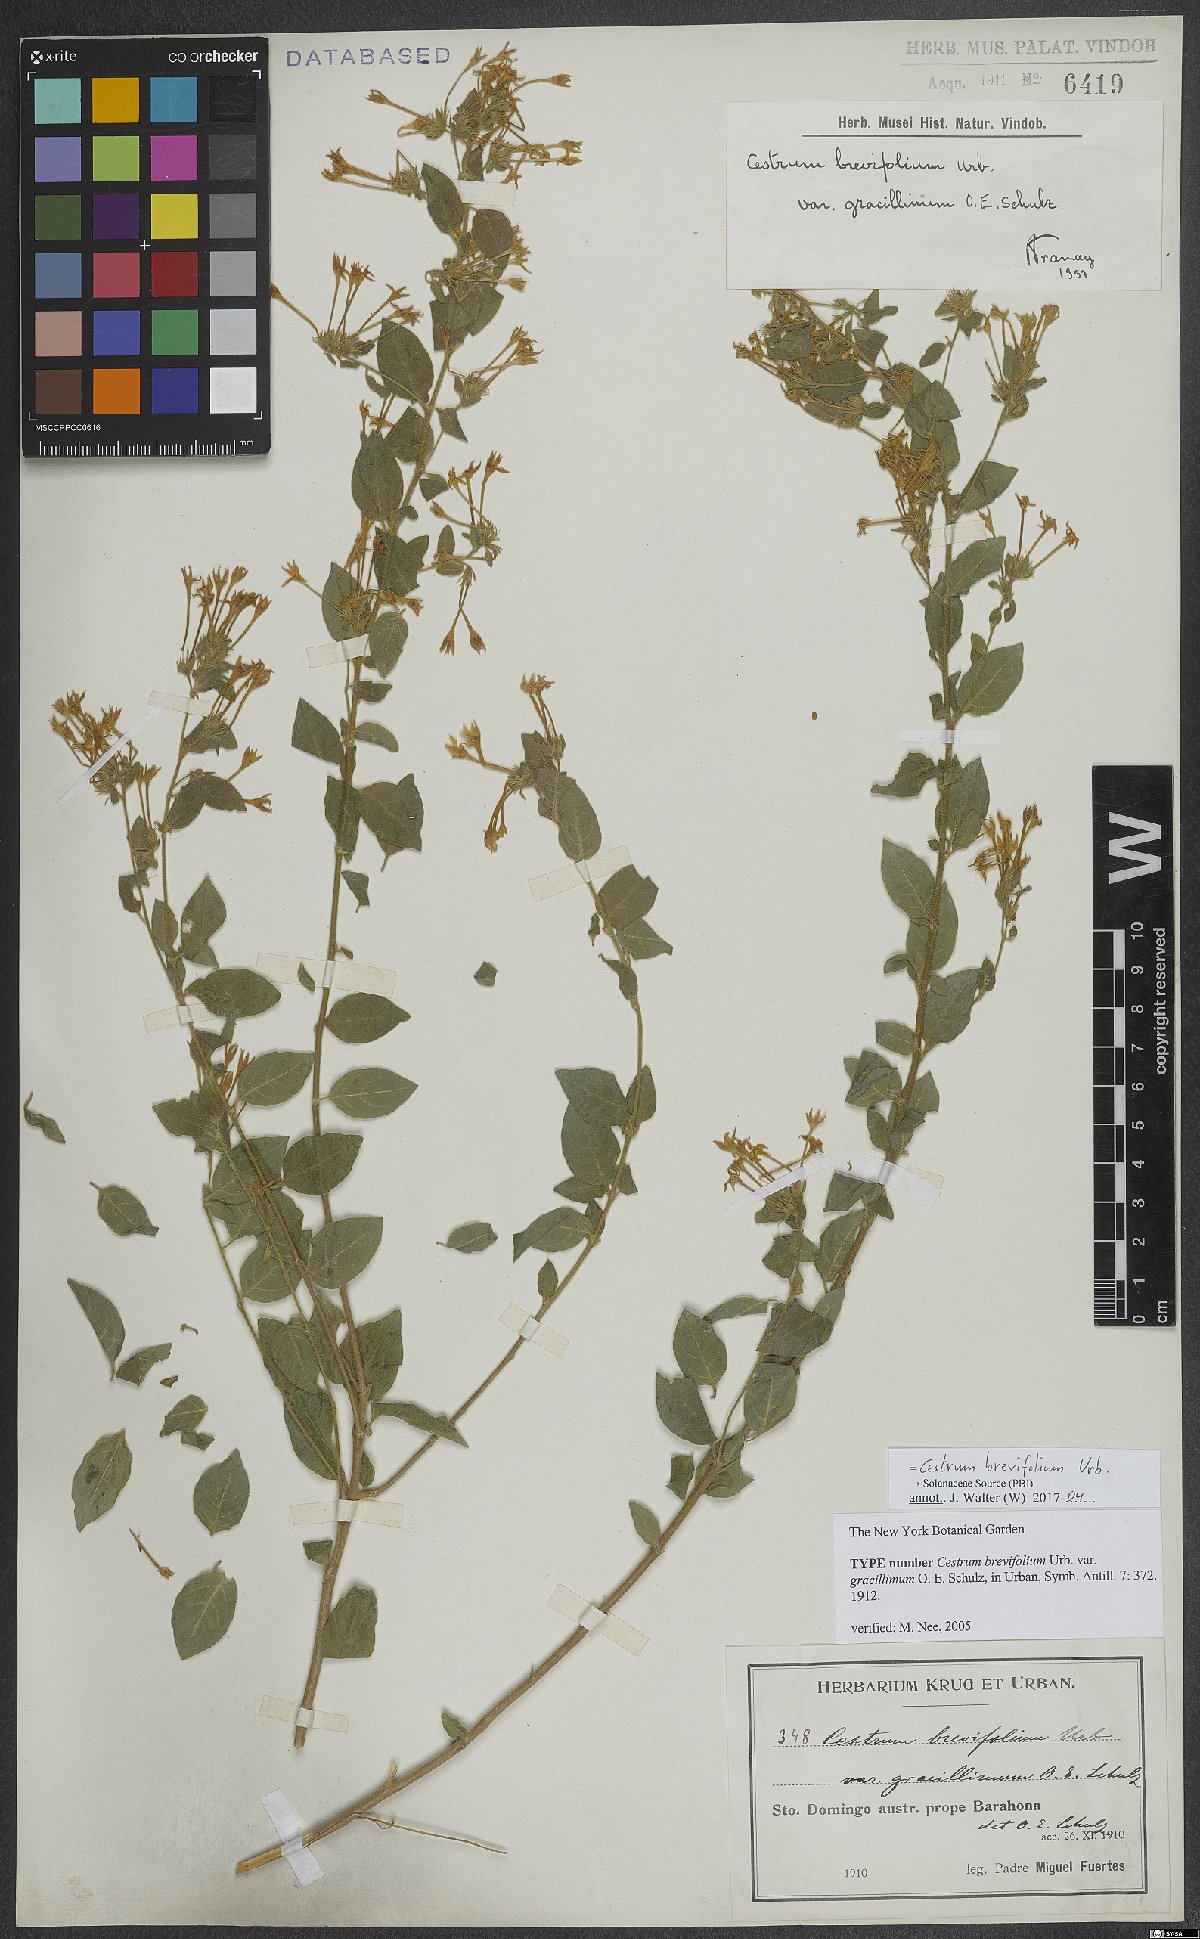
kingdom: Plantae
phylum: Tracheophyta
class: Magnoliopsida
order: Solanales
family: Solanaceae
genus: Cestrum
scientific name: Cestrum brevifolium
